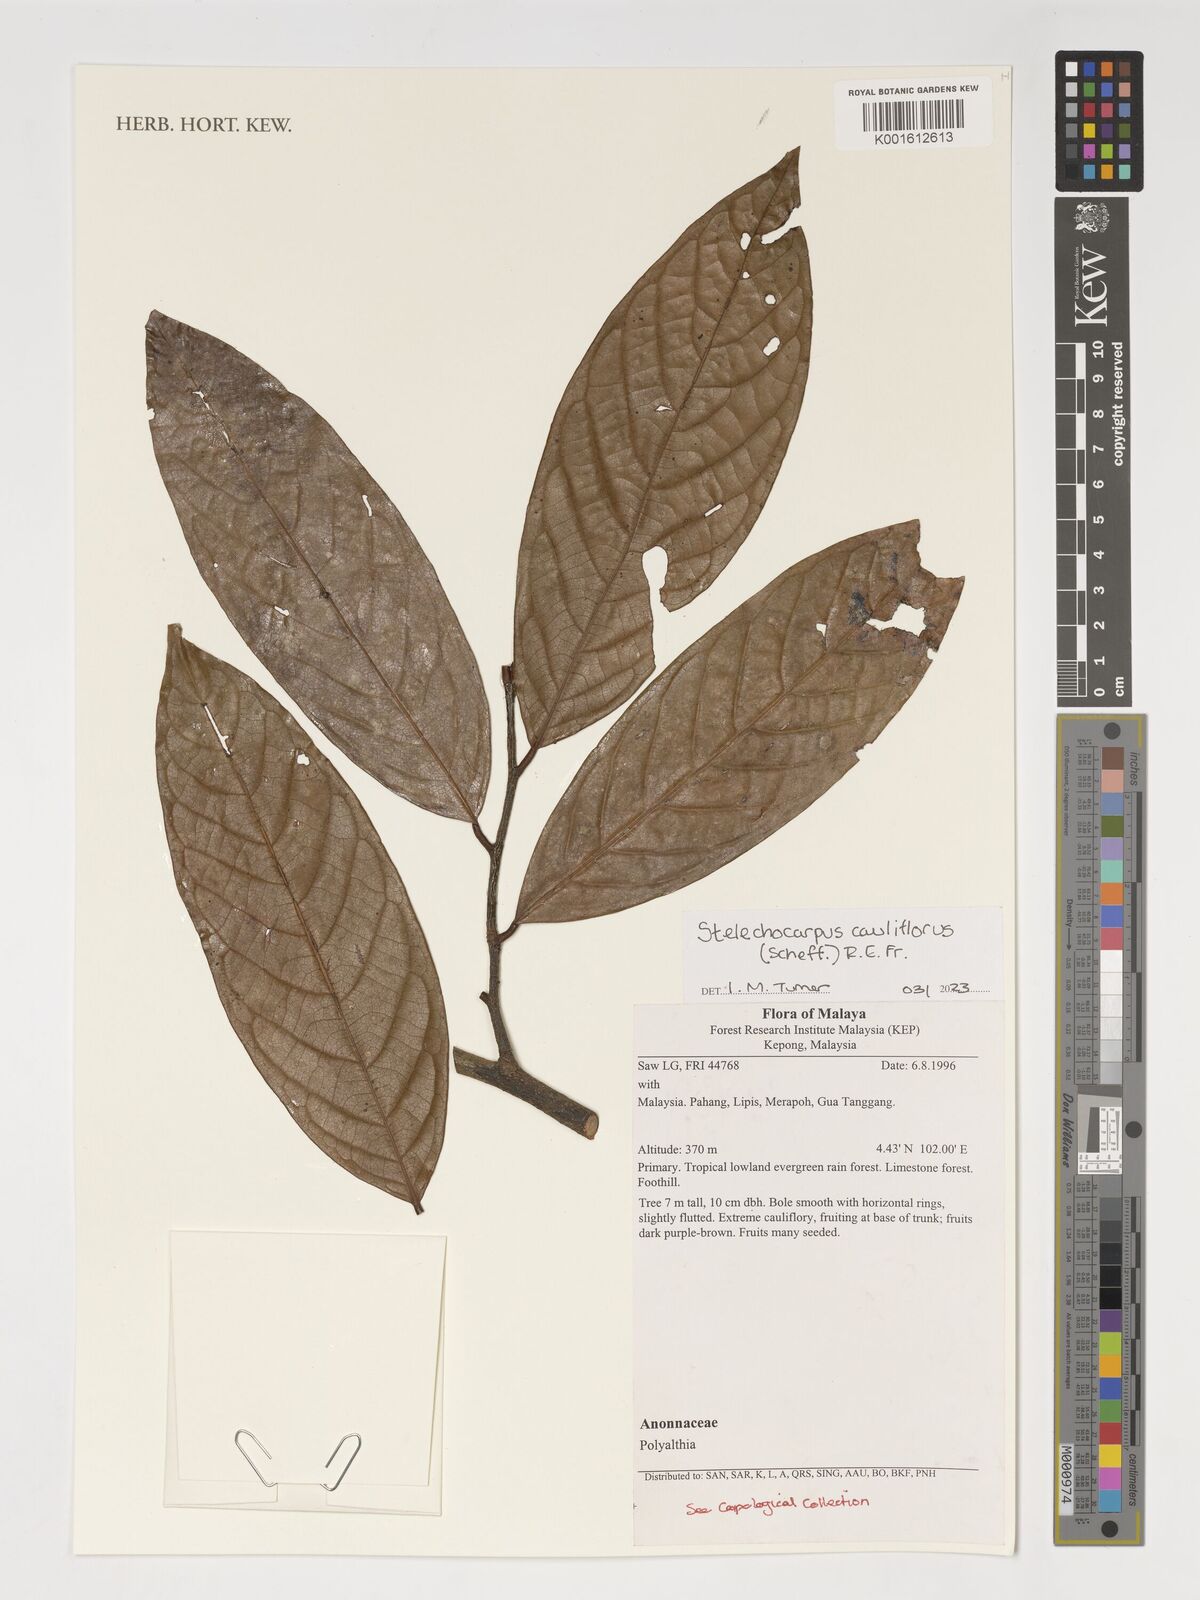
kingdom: Plantae
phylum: Tracheophyta
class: Magnoliopsida
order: Magnoliales
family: Annonaceae
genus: Stelechocarpus
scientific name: Stelechocarpus cauliflorus
